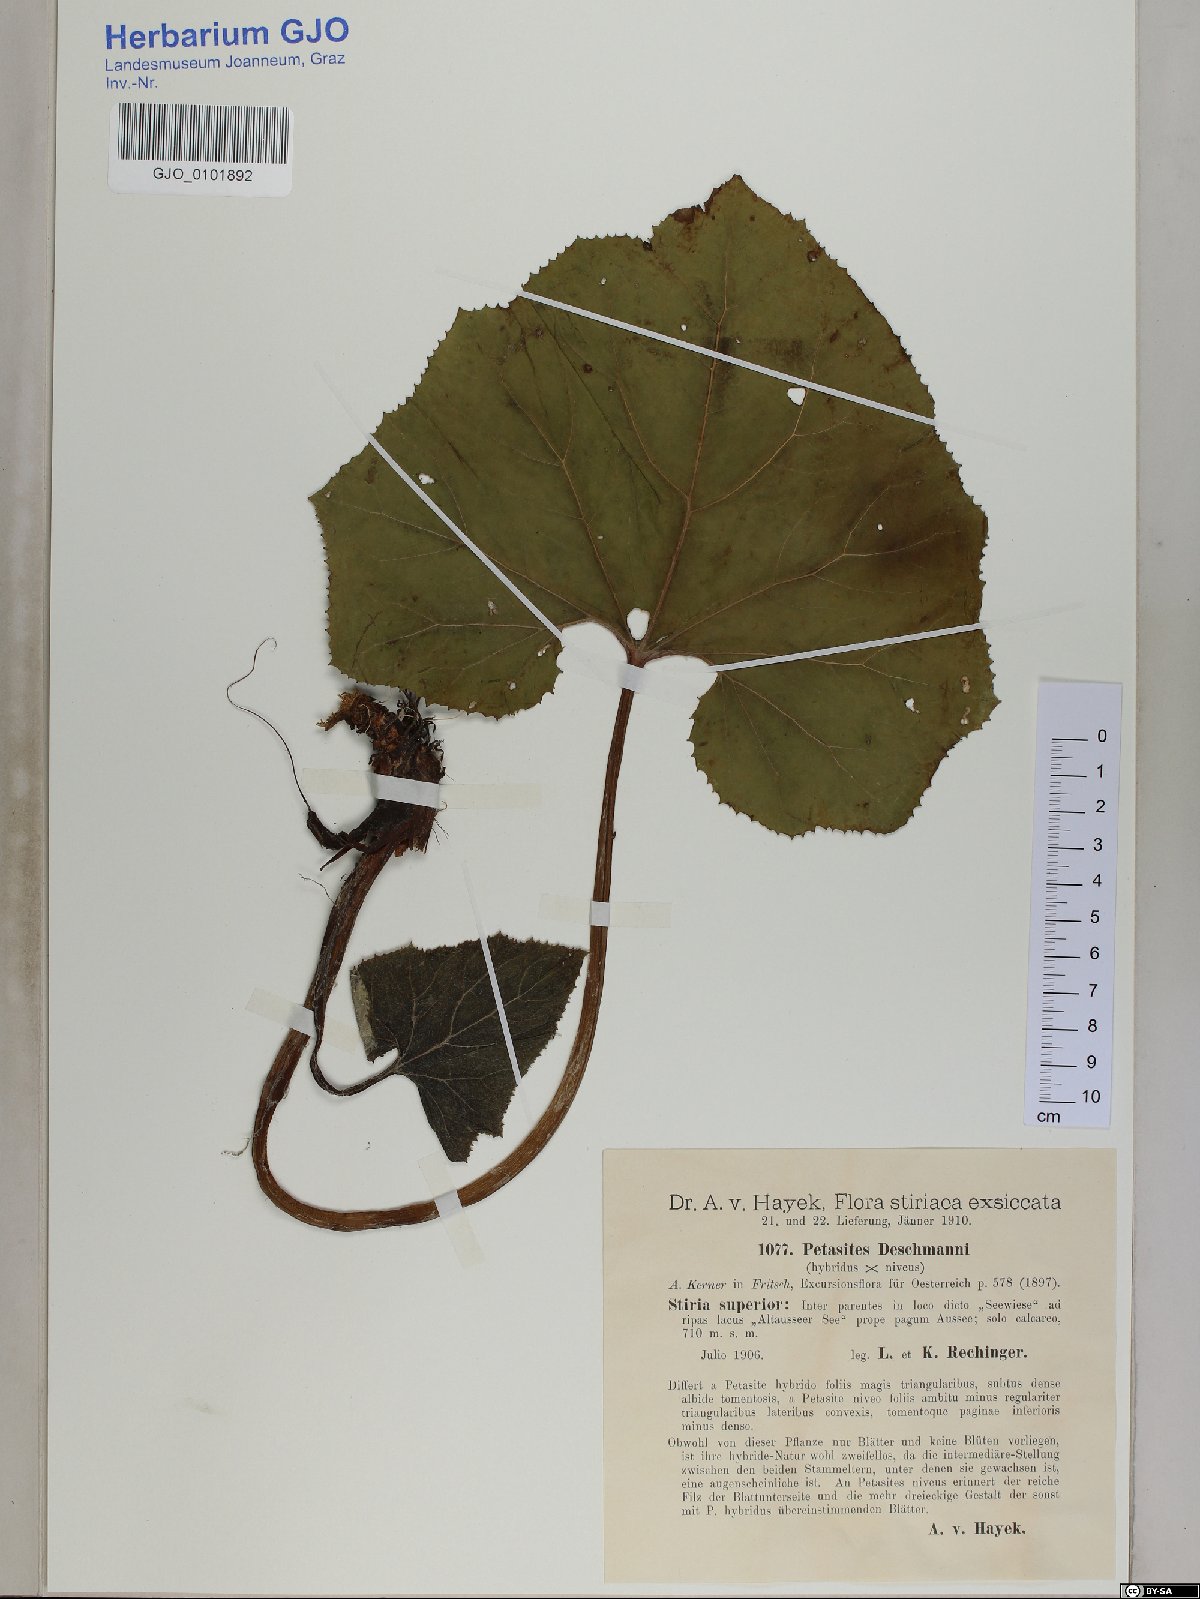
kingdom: Plantae
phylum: Tracheophyta
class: Magnoliopsida
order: Asterales
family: Asteraceae
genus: Petasites
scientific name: Petasites deschmannii
